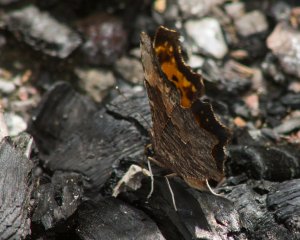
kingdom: Animalia
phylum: Arthropoda
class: Insecta
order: Lepidoptera
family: Nymphalidae
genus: Polygonia
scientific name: Polygonia comma
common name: Eastern Comma
